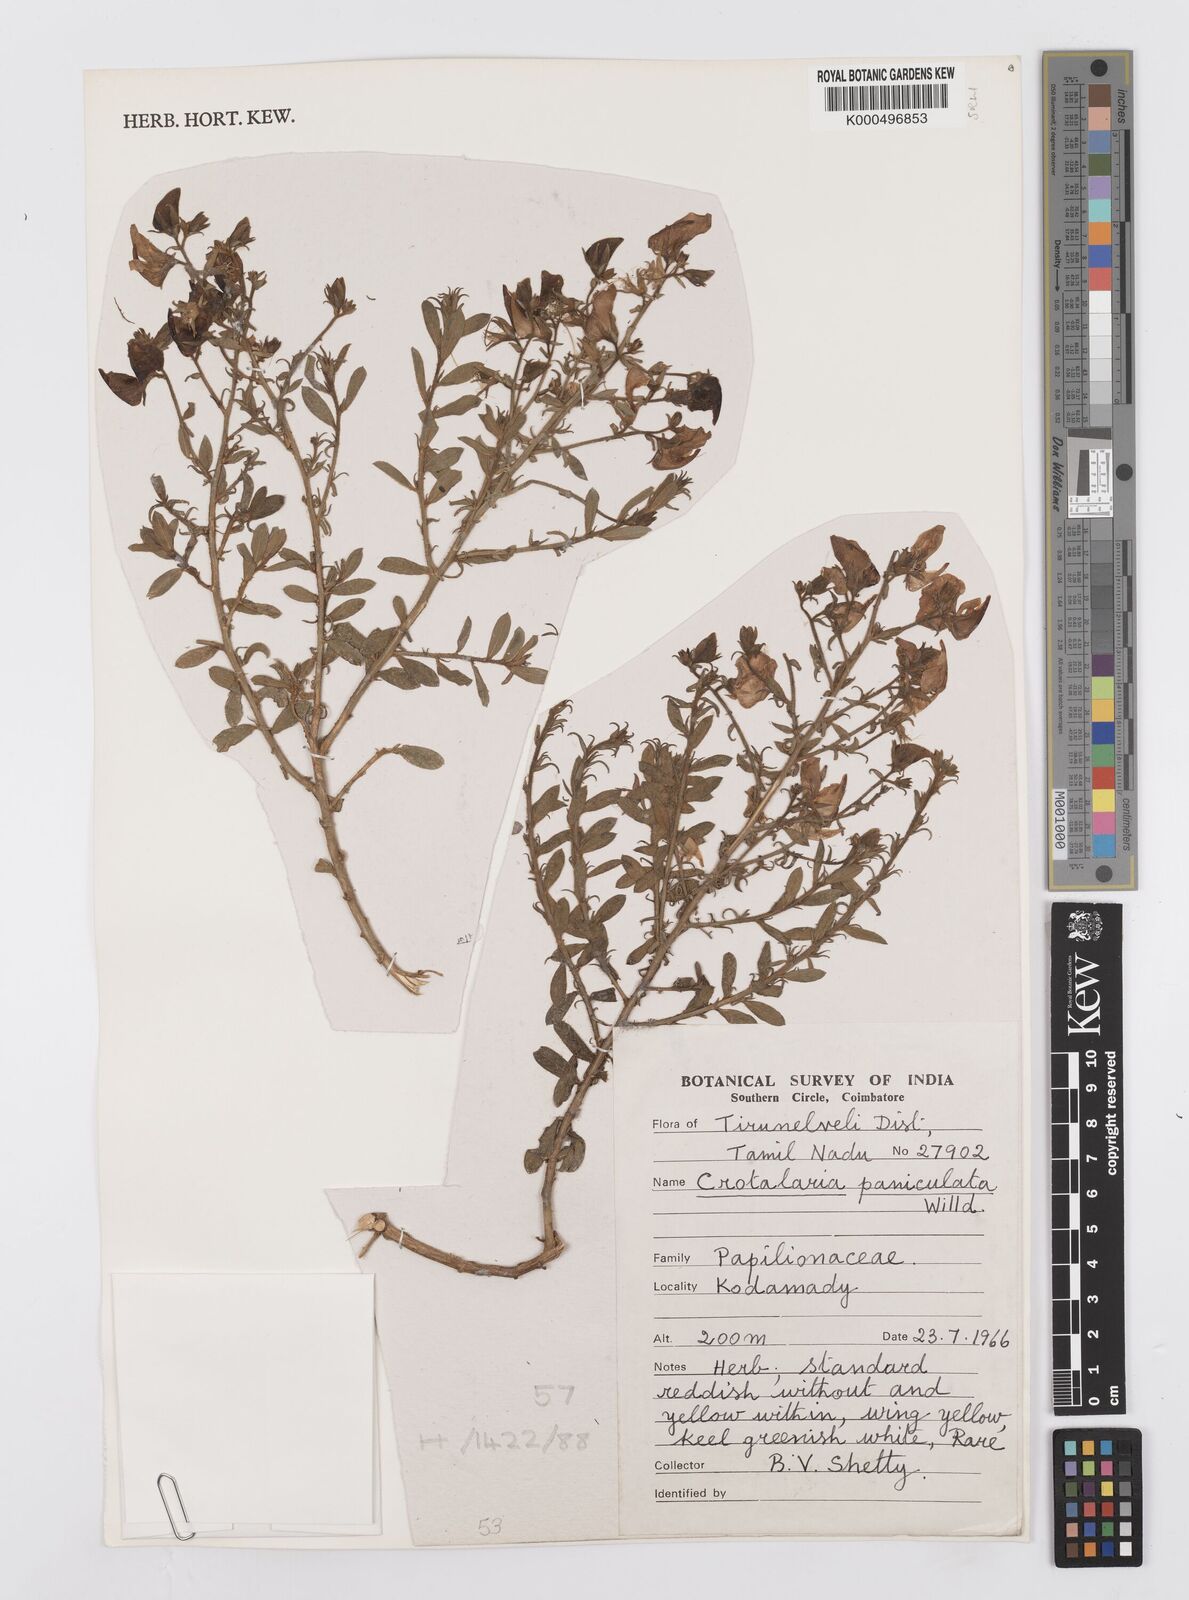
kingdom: Plantae
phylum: Tracheophyta
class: Magnoliopsida
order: Fabales
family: Fabaceae
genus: Crotalaria
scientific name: Crotalaria paniculata
